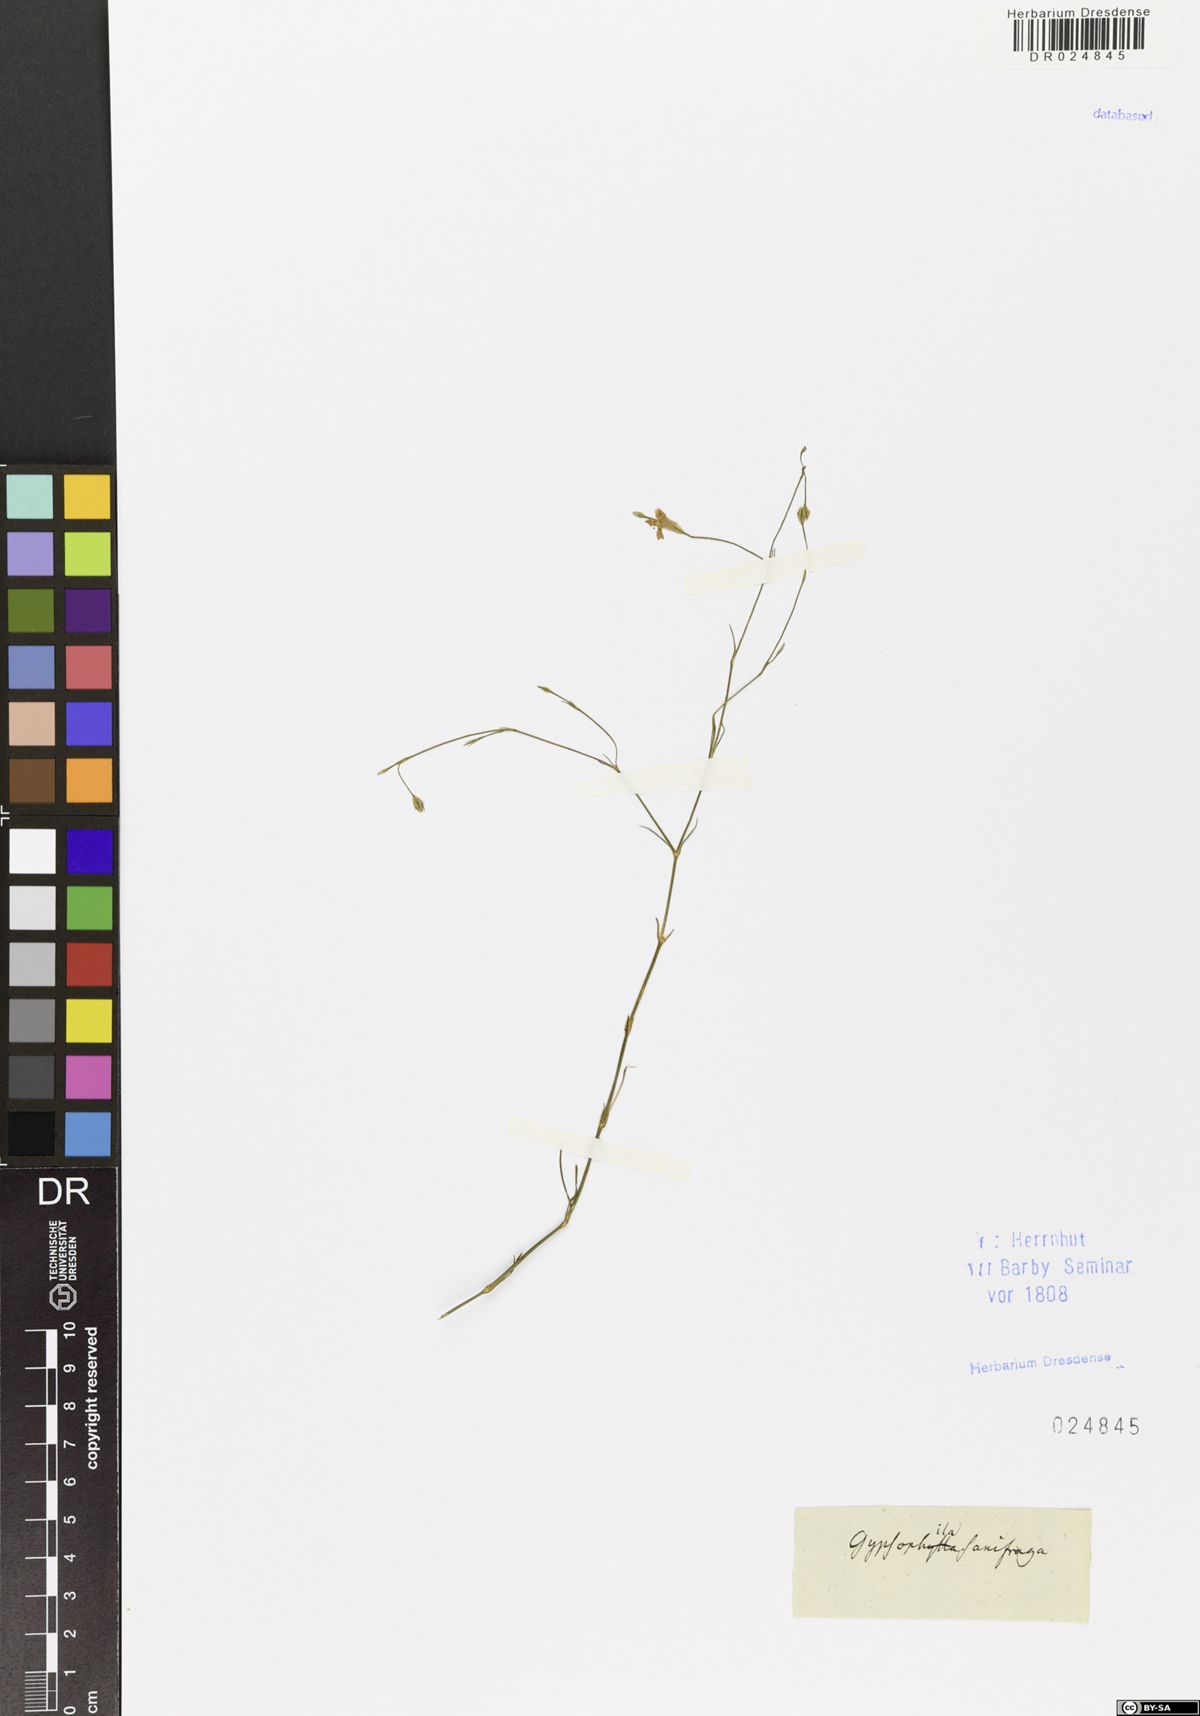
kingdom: Plantae
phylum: Tracheophyta
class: Magnoliopsida
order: Caryophyllales
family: Caryophyllaceae
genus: Petrorhagia
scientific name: Petrorhagia saxifraga
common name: Tunicflower
